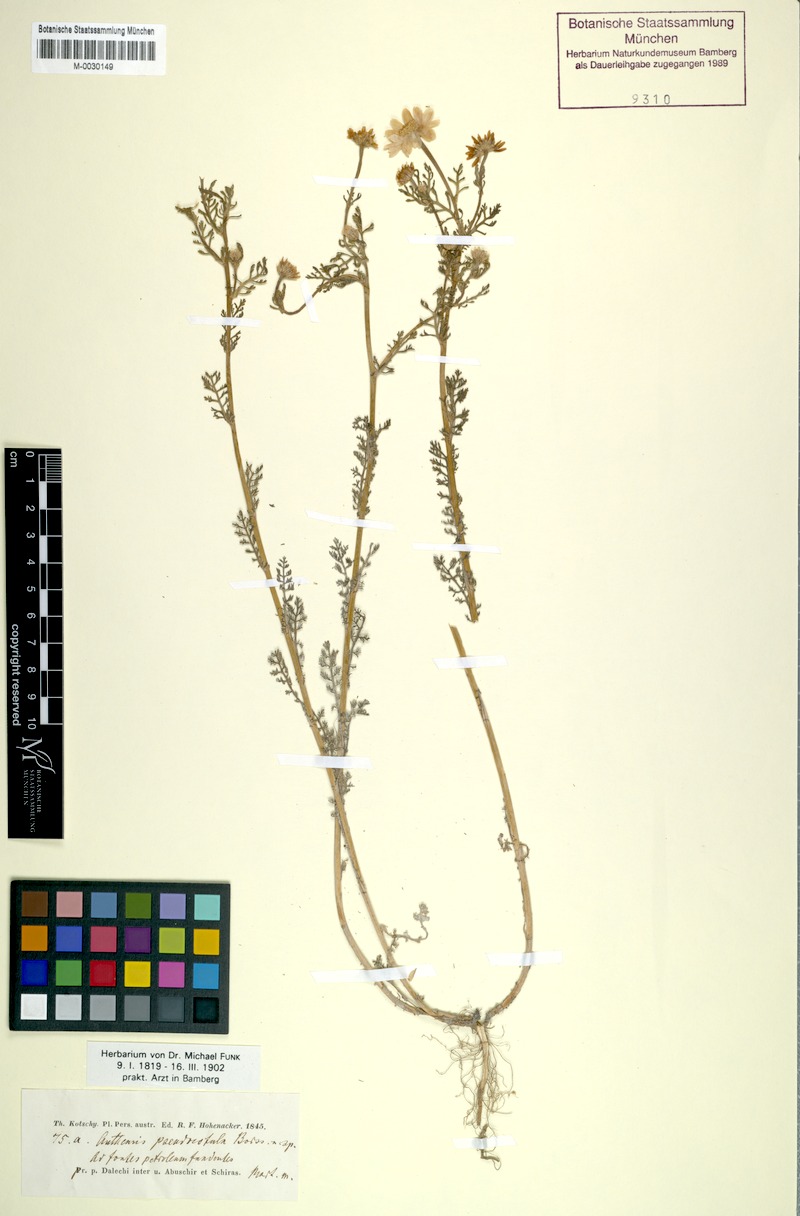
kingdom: Plantae
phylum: Tracheophyta
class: Magnoliopsida
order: Asterales
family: Asteraceae
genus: Anthemis
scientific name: Anthemis pseudocotula
